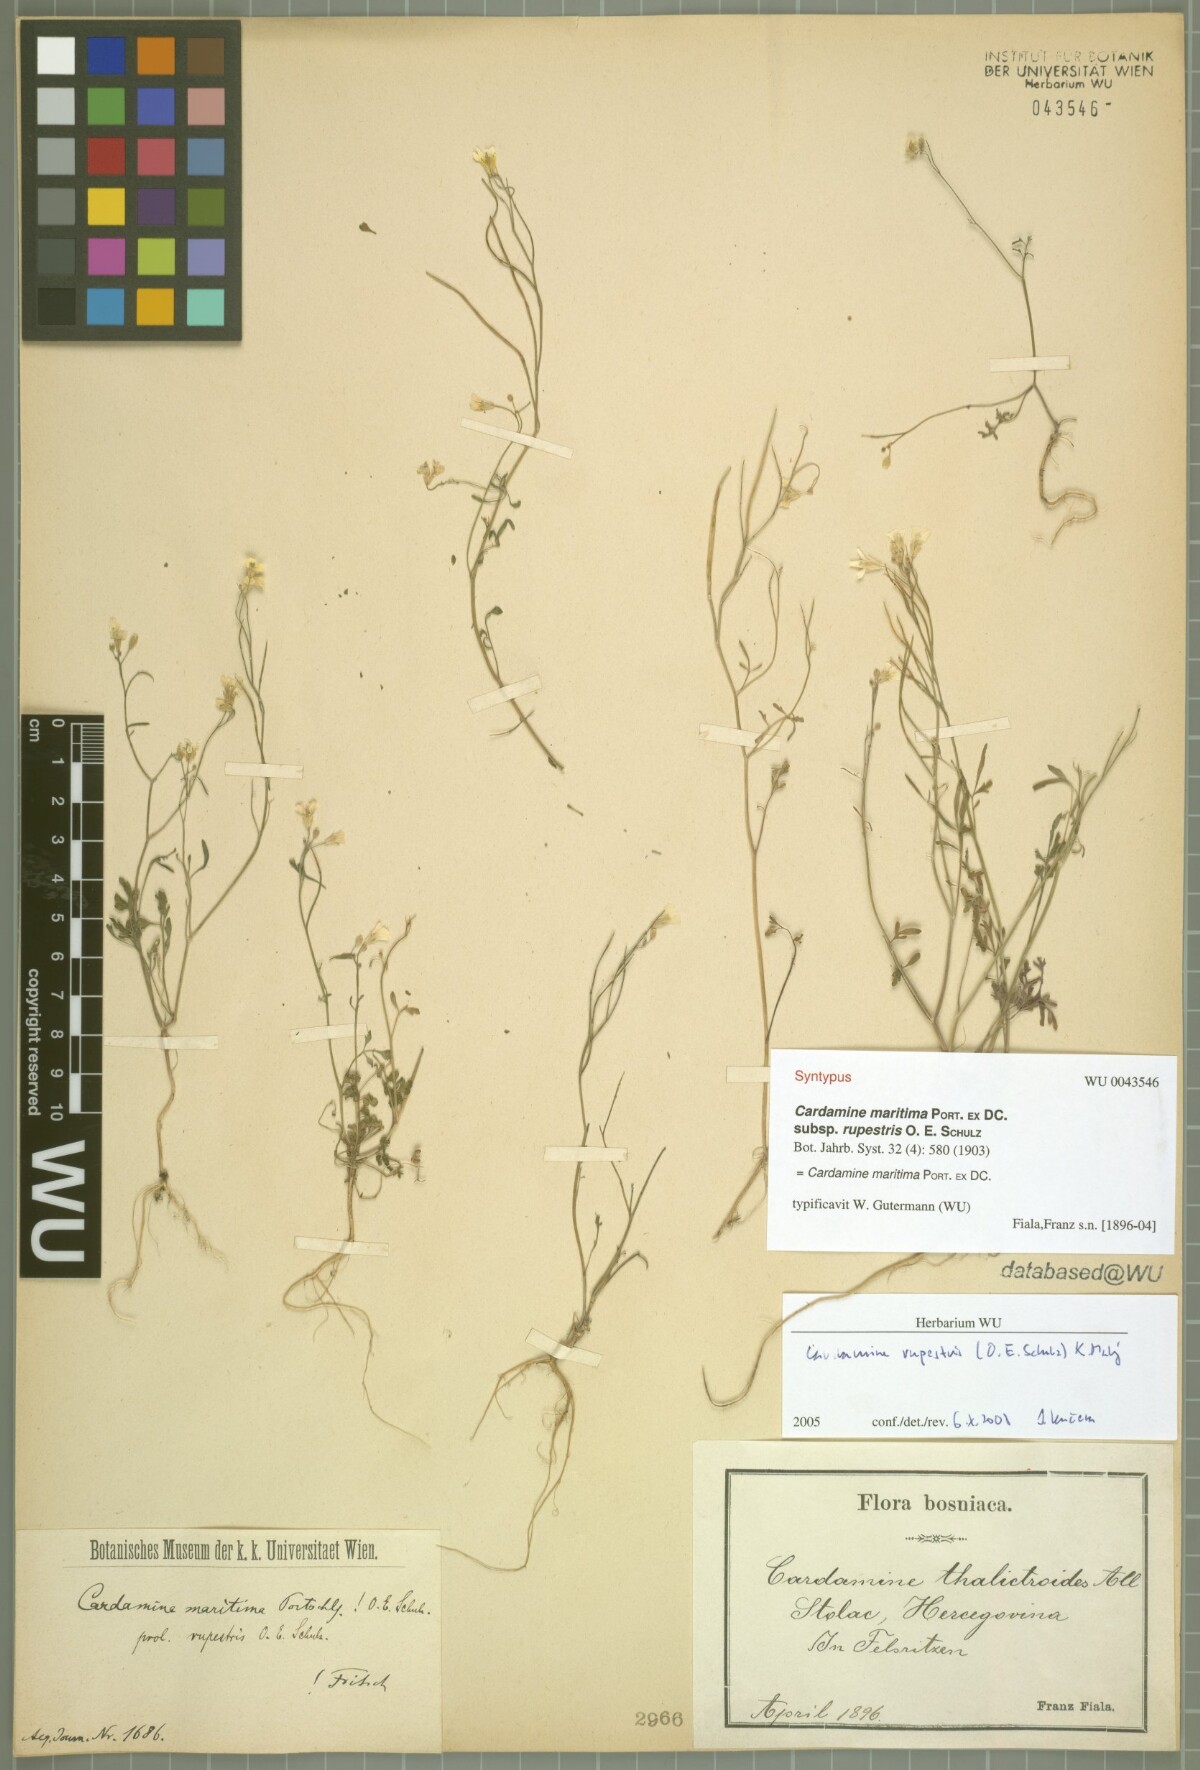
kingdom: Plantae
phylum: Tracheophyta
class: Magnoliopsida
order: Brassicales
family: Brassicaceae
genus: Cardamine
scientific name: Cardamine maritima
